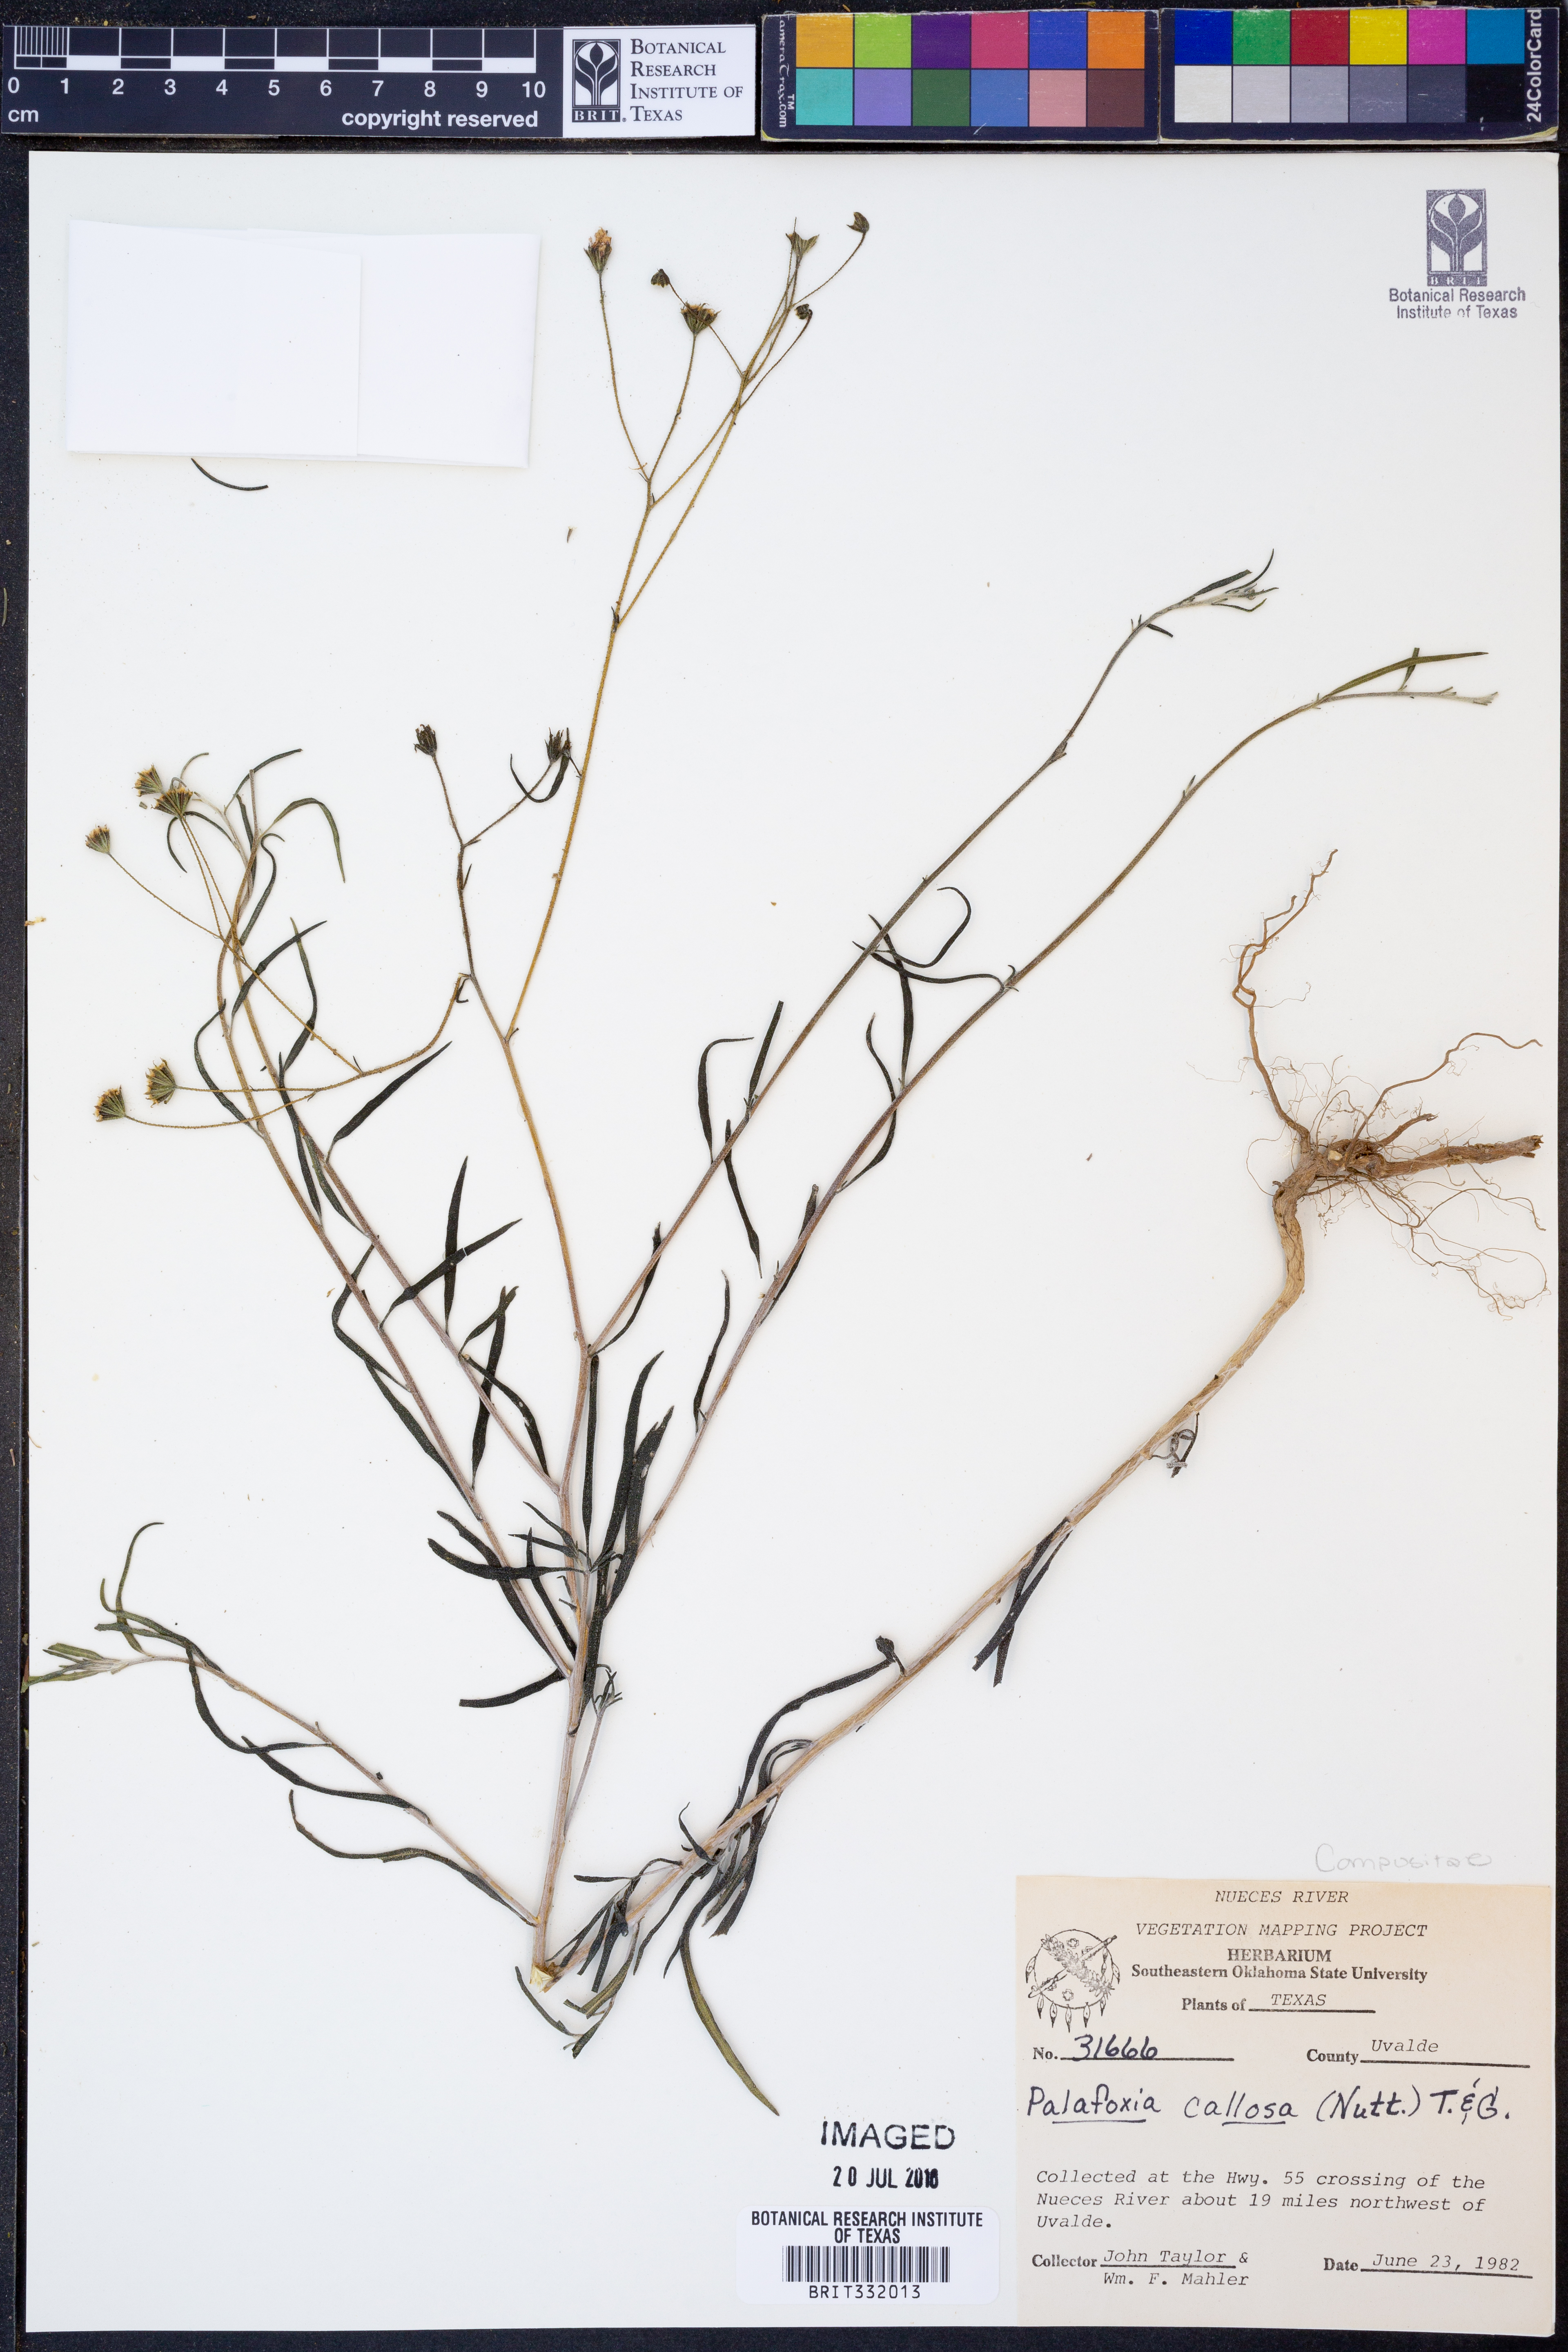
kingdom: Plantae
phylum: Tracheophyta
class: Magnoliopsida
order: Asterales
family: Asteraceae
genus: Palafoxia
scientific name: Palafoxia callosa
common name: Small palafox
